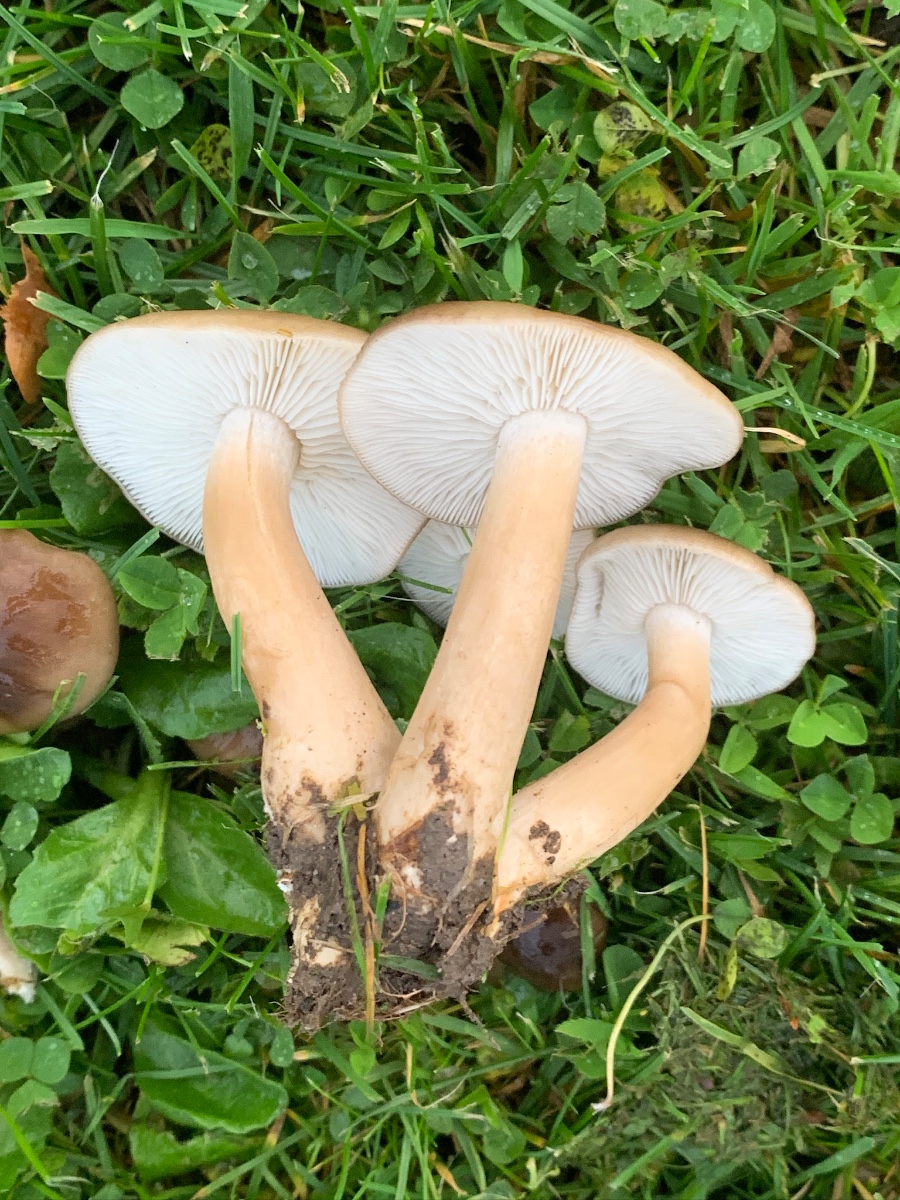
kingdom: Fungi
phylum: Basidiomycota
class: Agaricomycetes
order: Agaricales
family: Lyophyllaceae
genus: Lyophyllum
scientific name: Lyophyllum decastes
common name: røggrå gråblad
